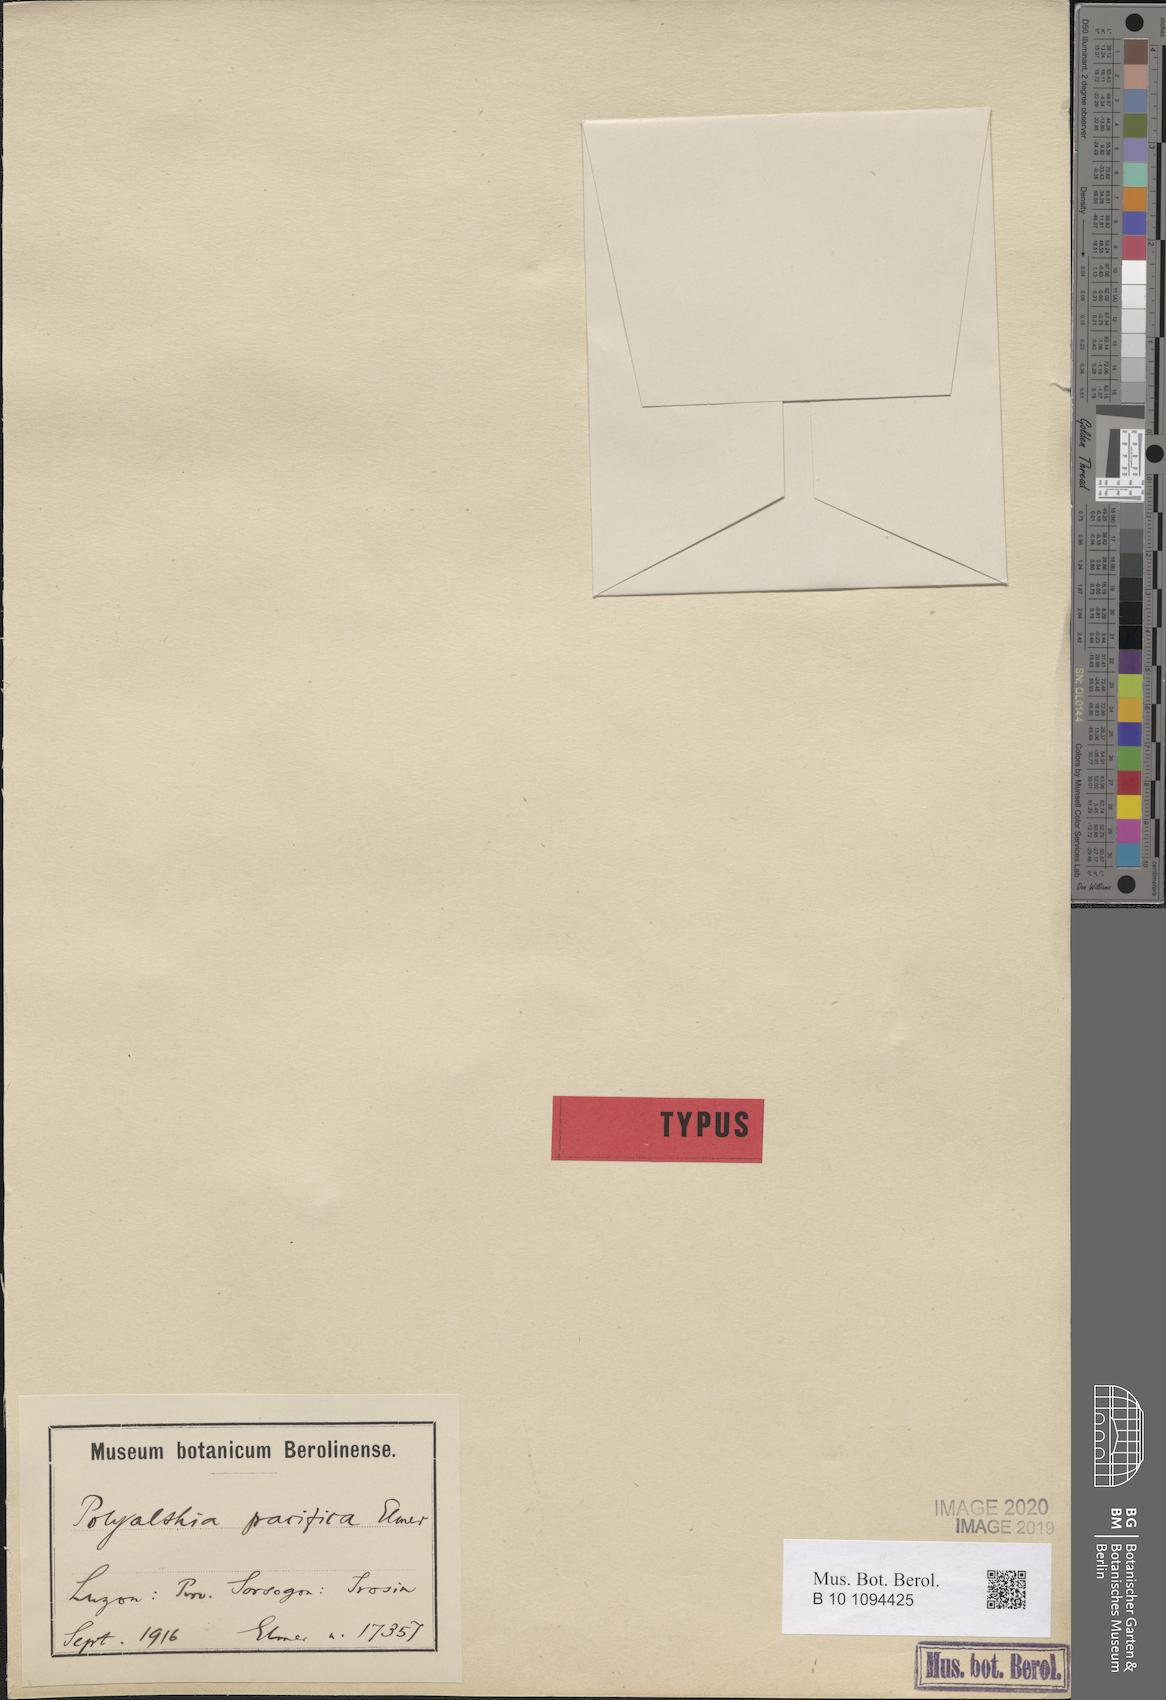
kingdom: Plantae
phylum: Tracheophyta
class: Magnoliopsida
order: Magnoliales
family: Annonaceae
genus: Miliusa
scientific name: Miliusa vidalii
